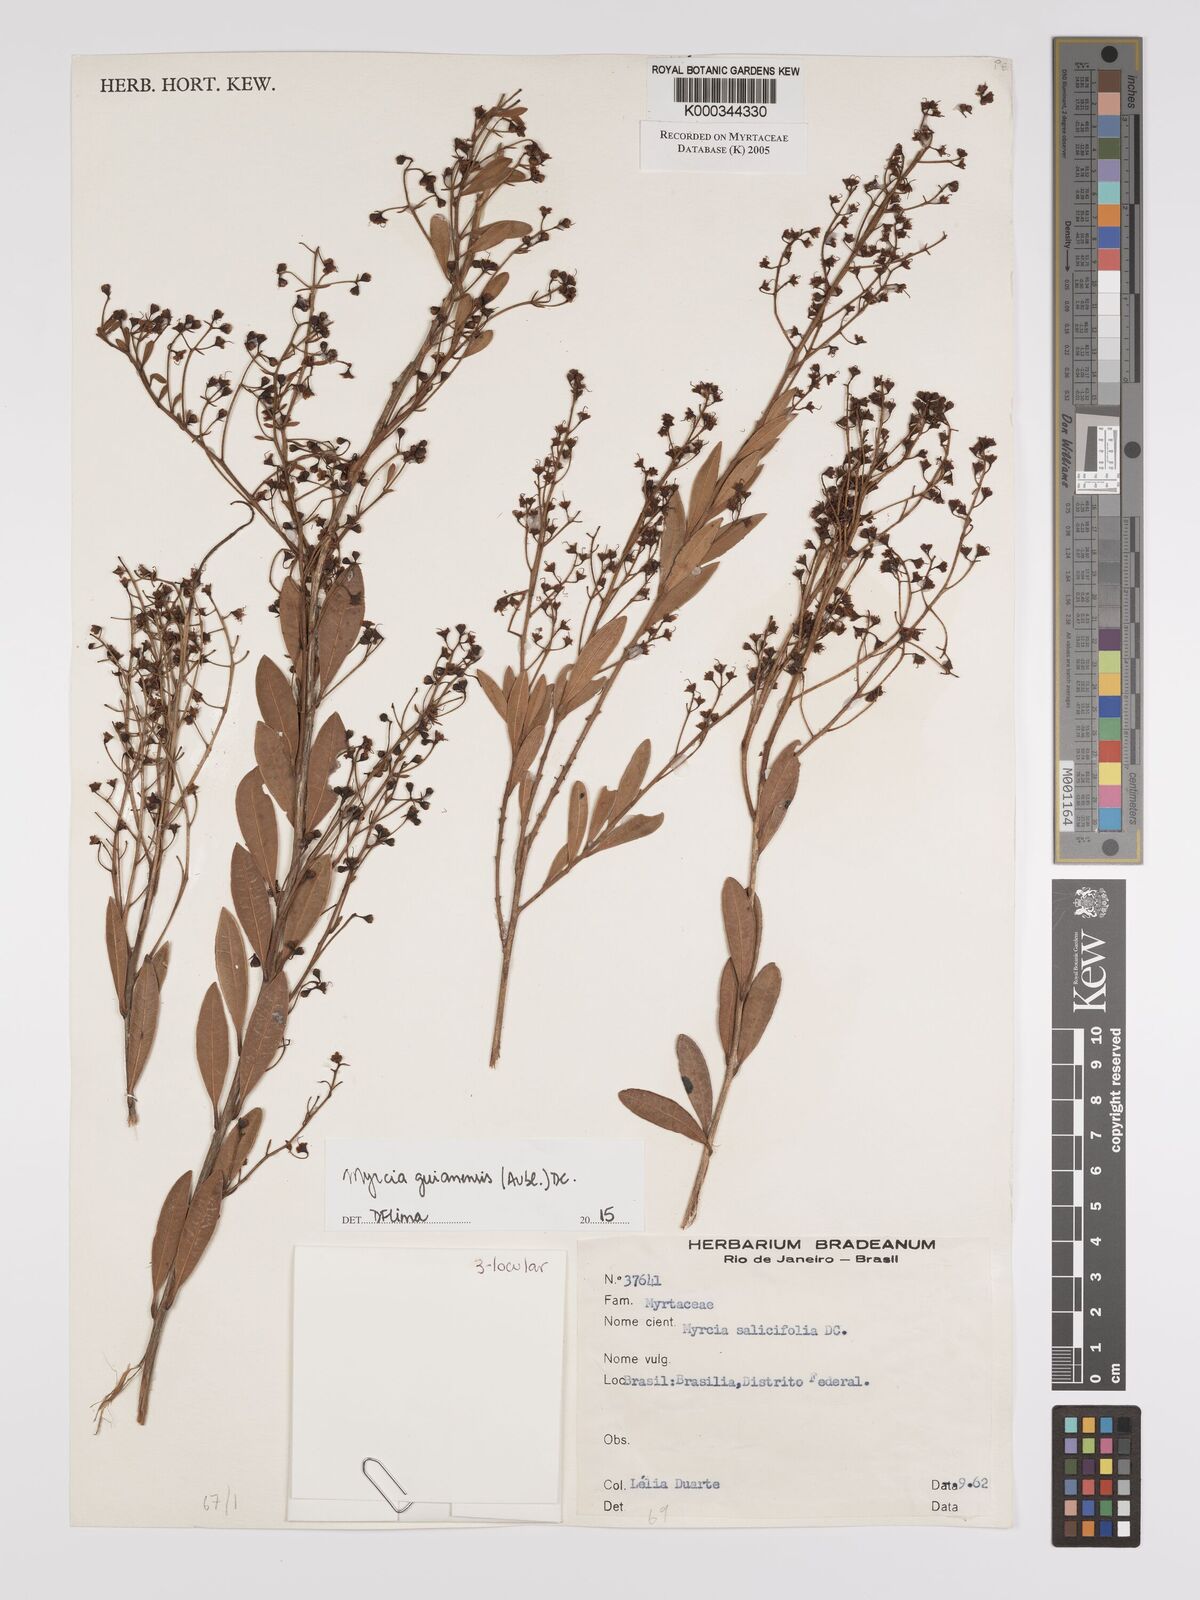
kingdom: Plantae
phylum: Tracheophyta
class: Magnoliopsida
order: Myrtales
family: Myrtaceae
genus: Myrcia
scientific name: Myrcia salicifolia
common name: Insulin plant
